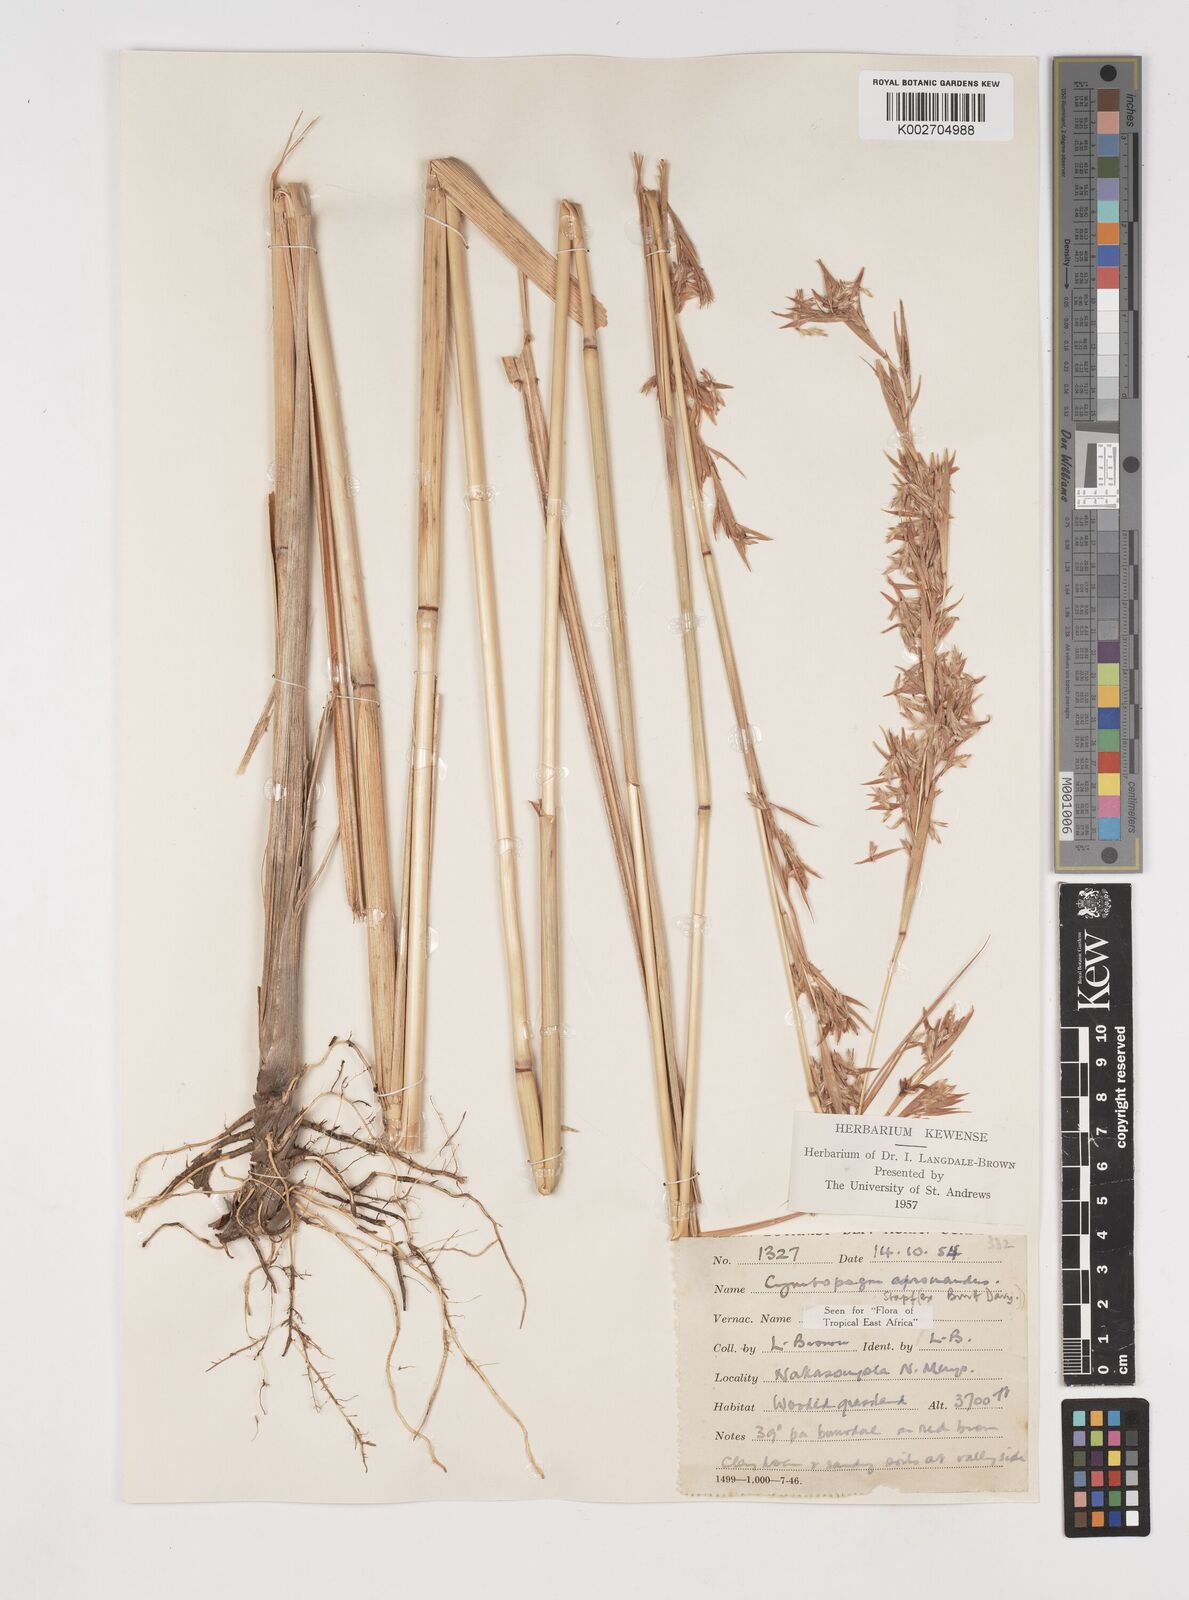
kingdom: Plantae
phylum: Tracheophyta
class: Liliopsida
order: Poales
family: Poaceae
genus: Cymbopogon
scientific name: Cymbopogon nardus
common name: Giant turpentine grass
